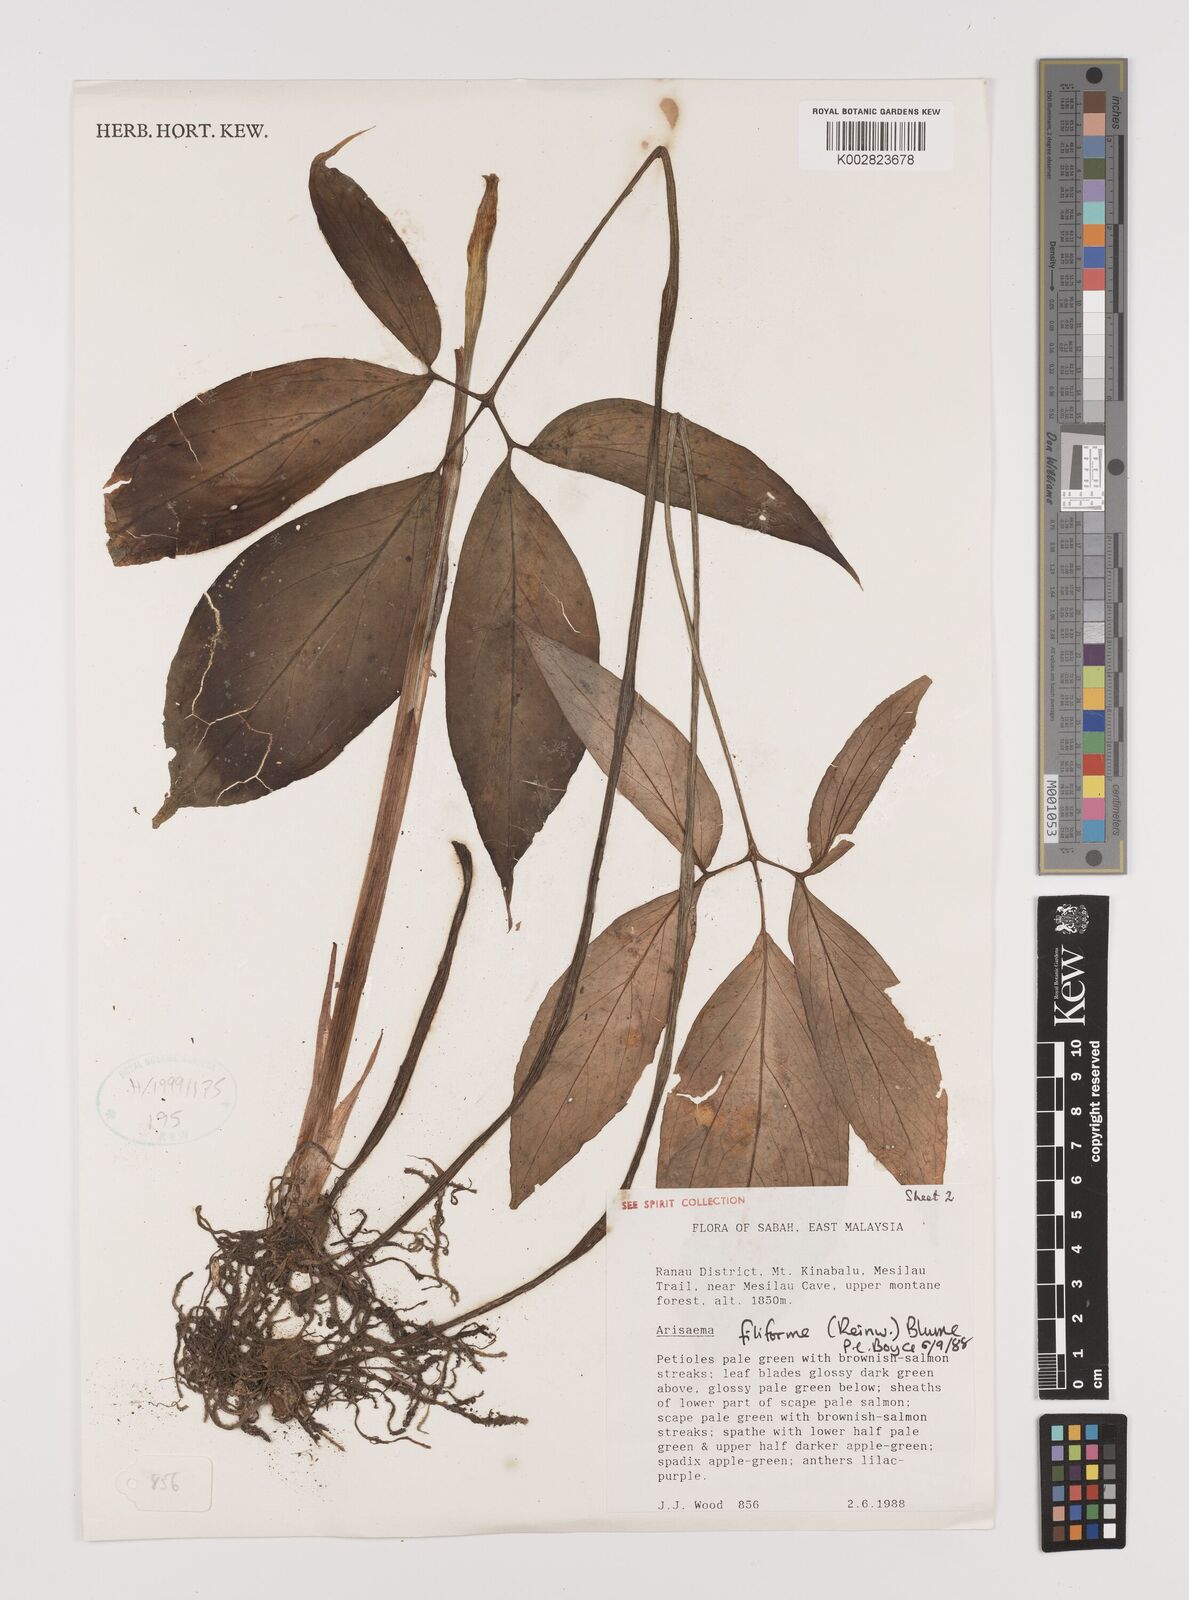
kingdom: Plantae
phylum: Tracheophyta
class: Liliopsida
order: Alismatales
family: Araceae
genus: Arisaema
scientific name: Arisaema filiforme
